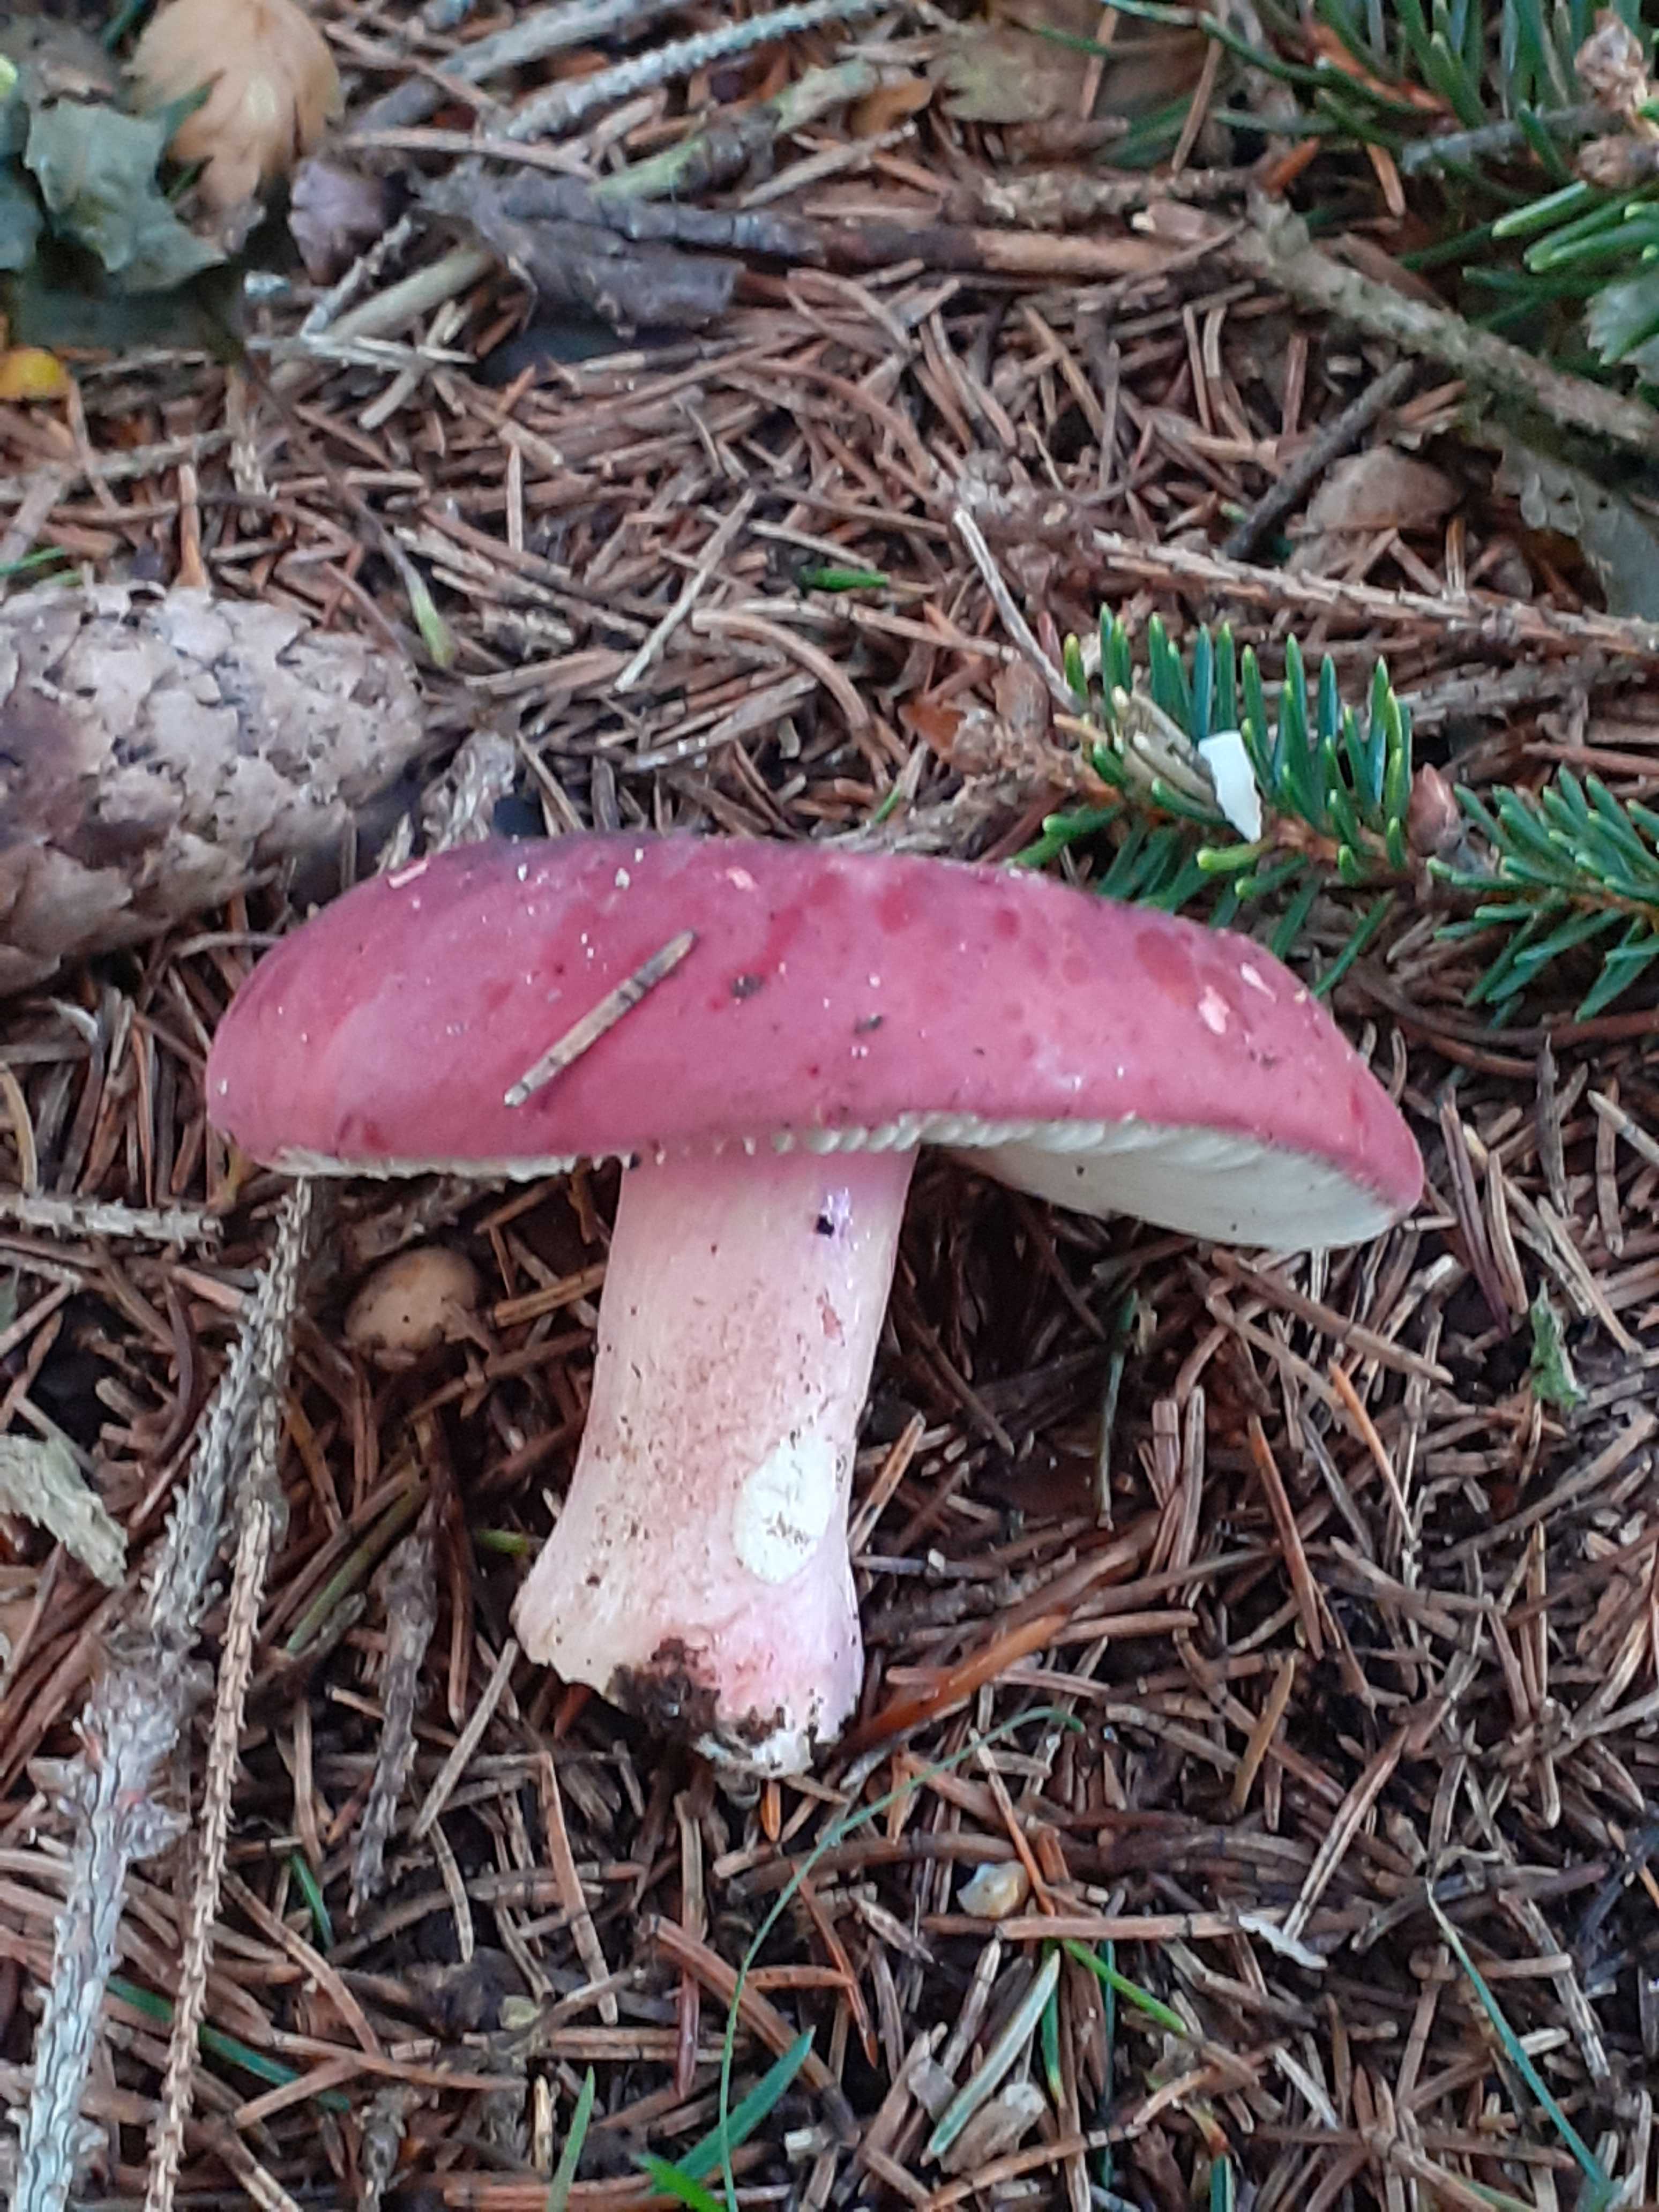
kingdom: Fungi
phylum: Basidiomycota
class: Agaricomycetes
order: Russulales
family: Russulaceae
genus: Russula
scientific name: Russula xerampelina
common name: hummer-skørhat
